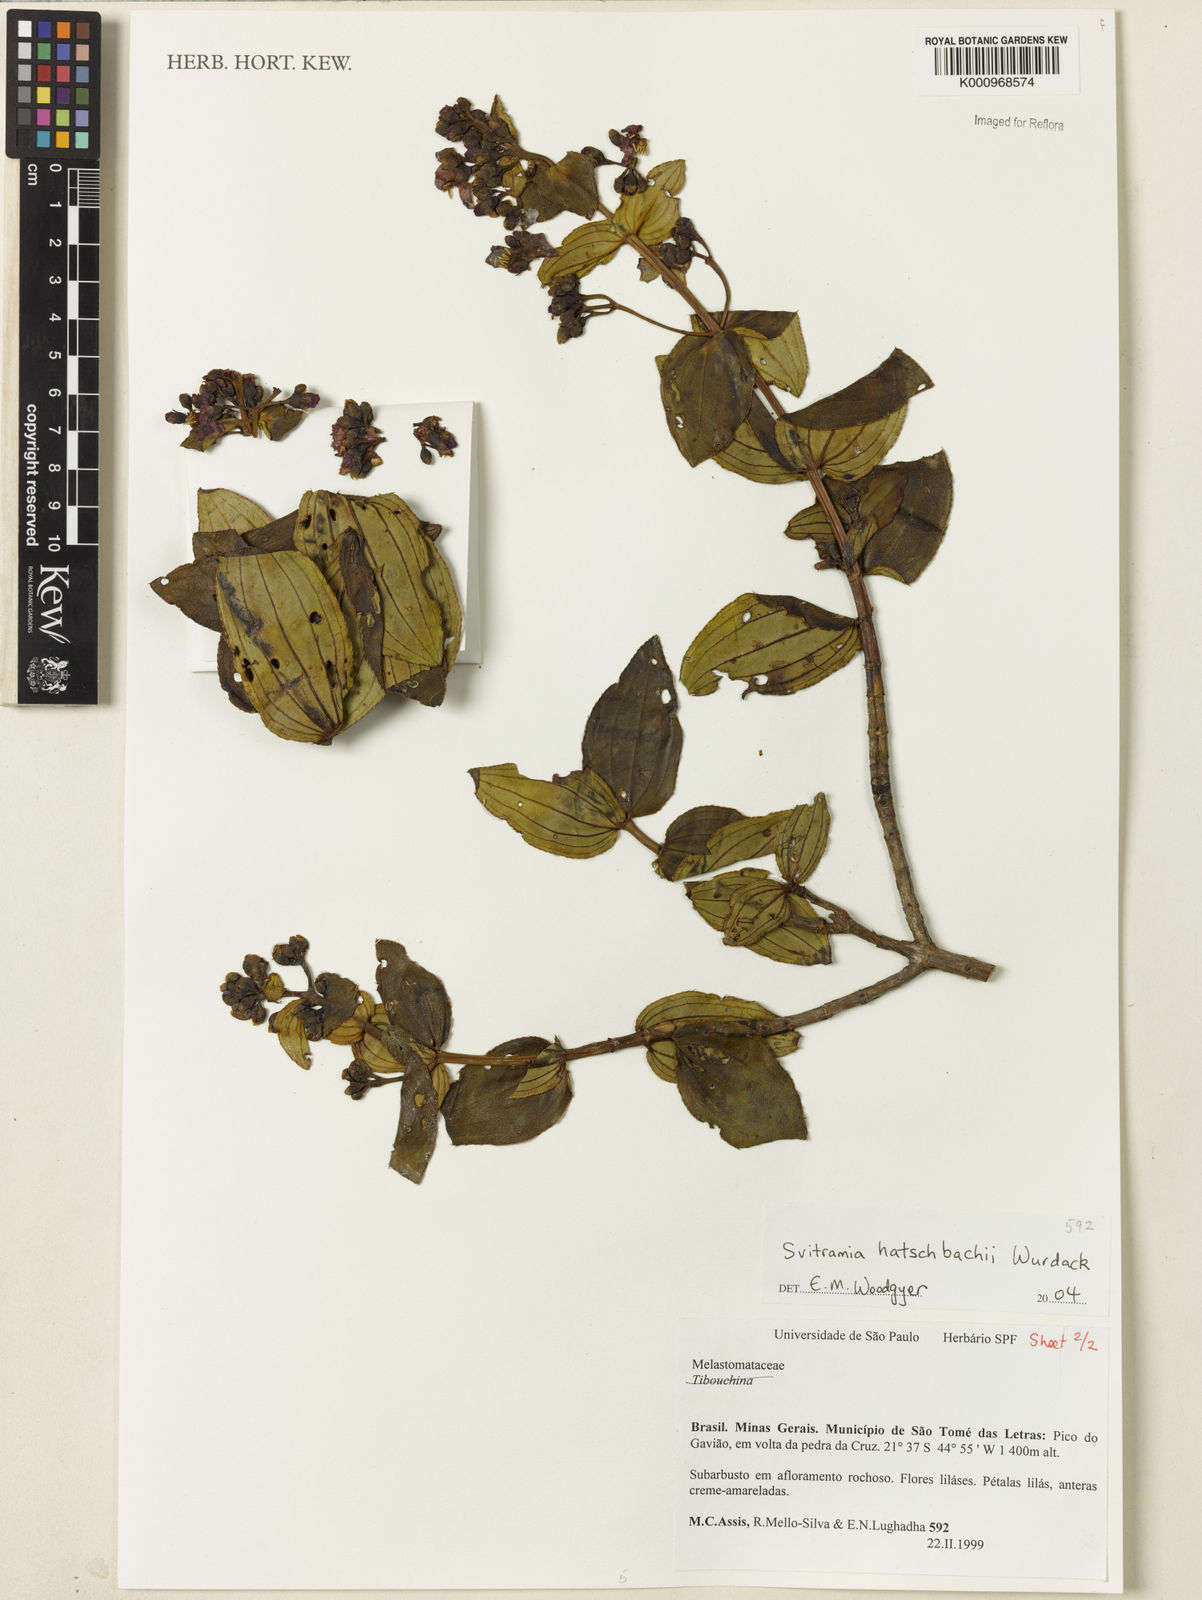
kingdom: Plantae
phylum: Tracheophyta
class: Magnoliopsida
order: Myrtales
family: Melastomataceae
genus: Pleroma
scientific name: Pleroma gertii
